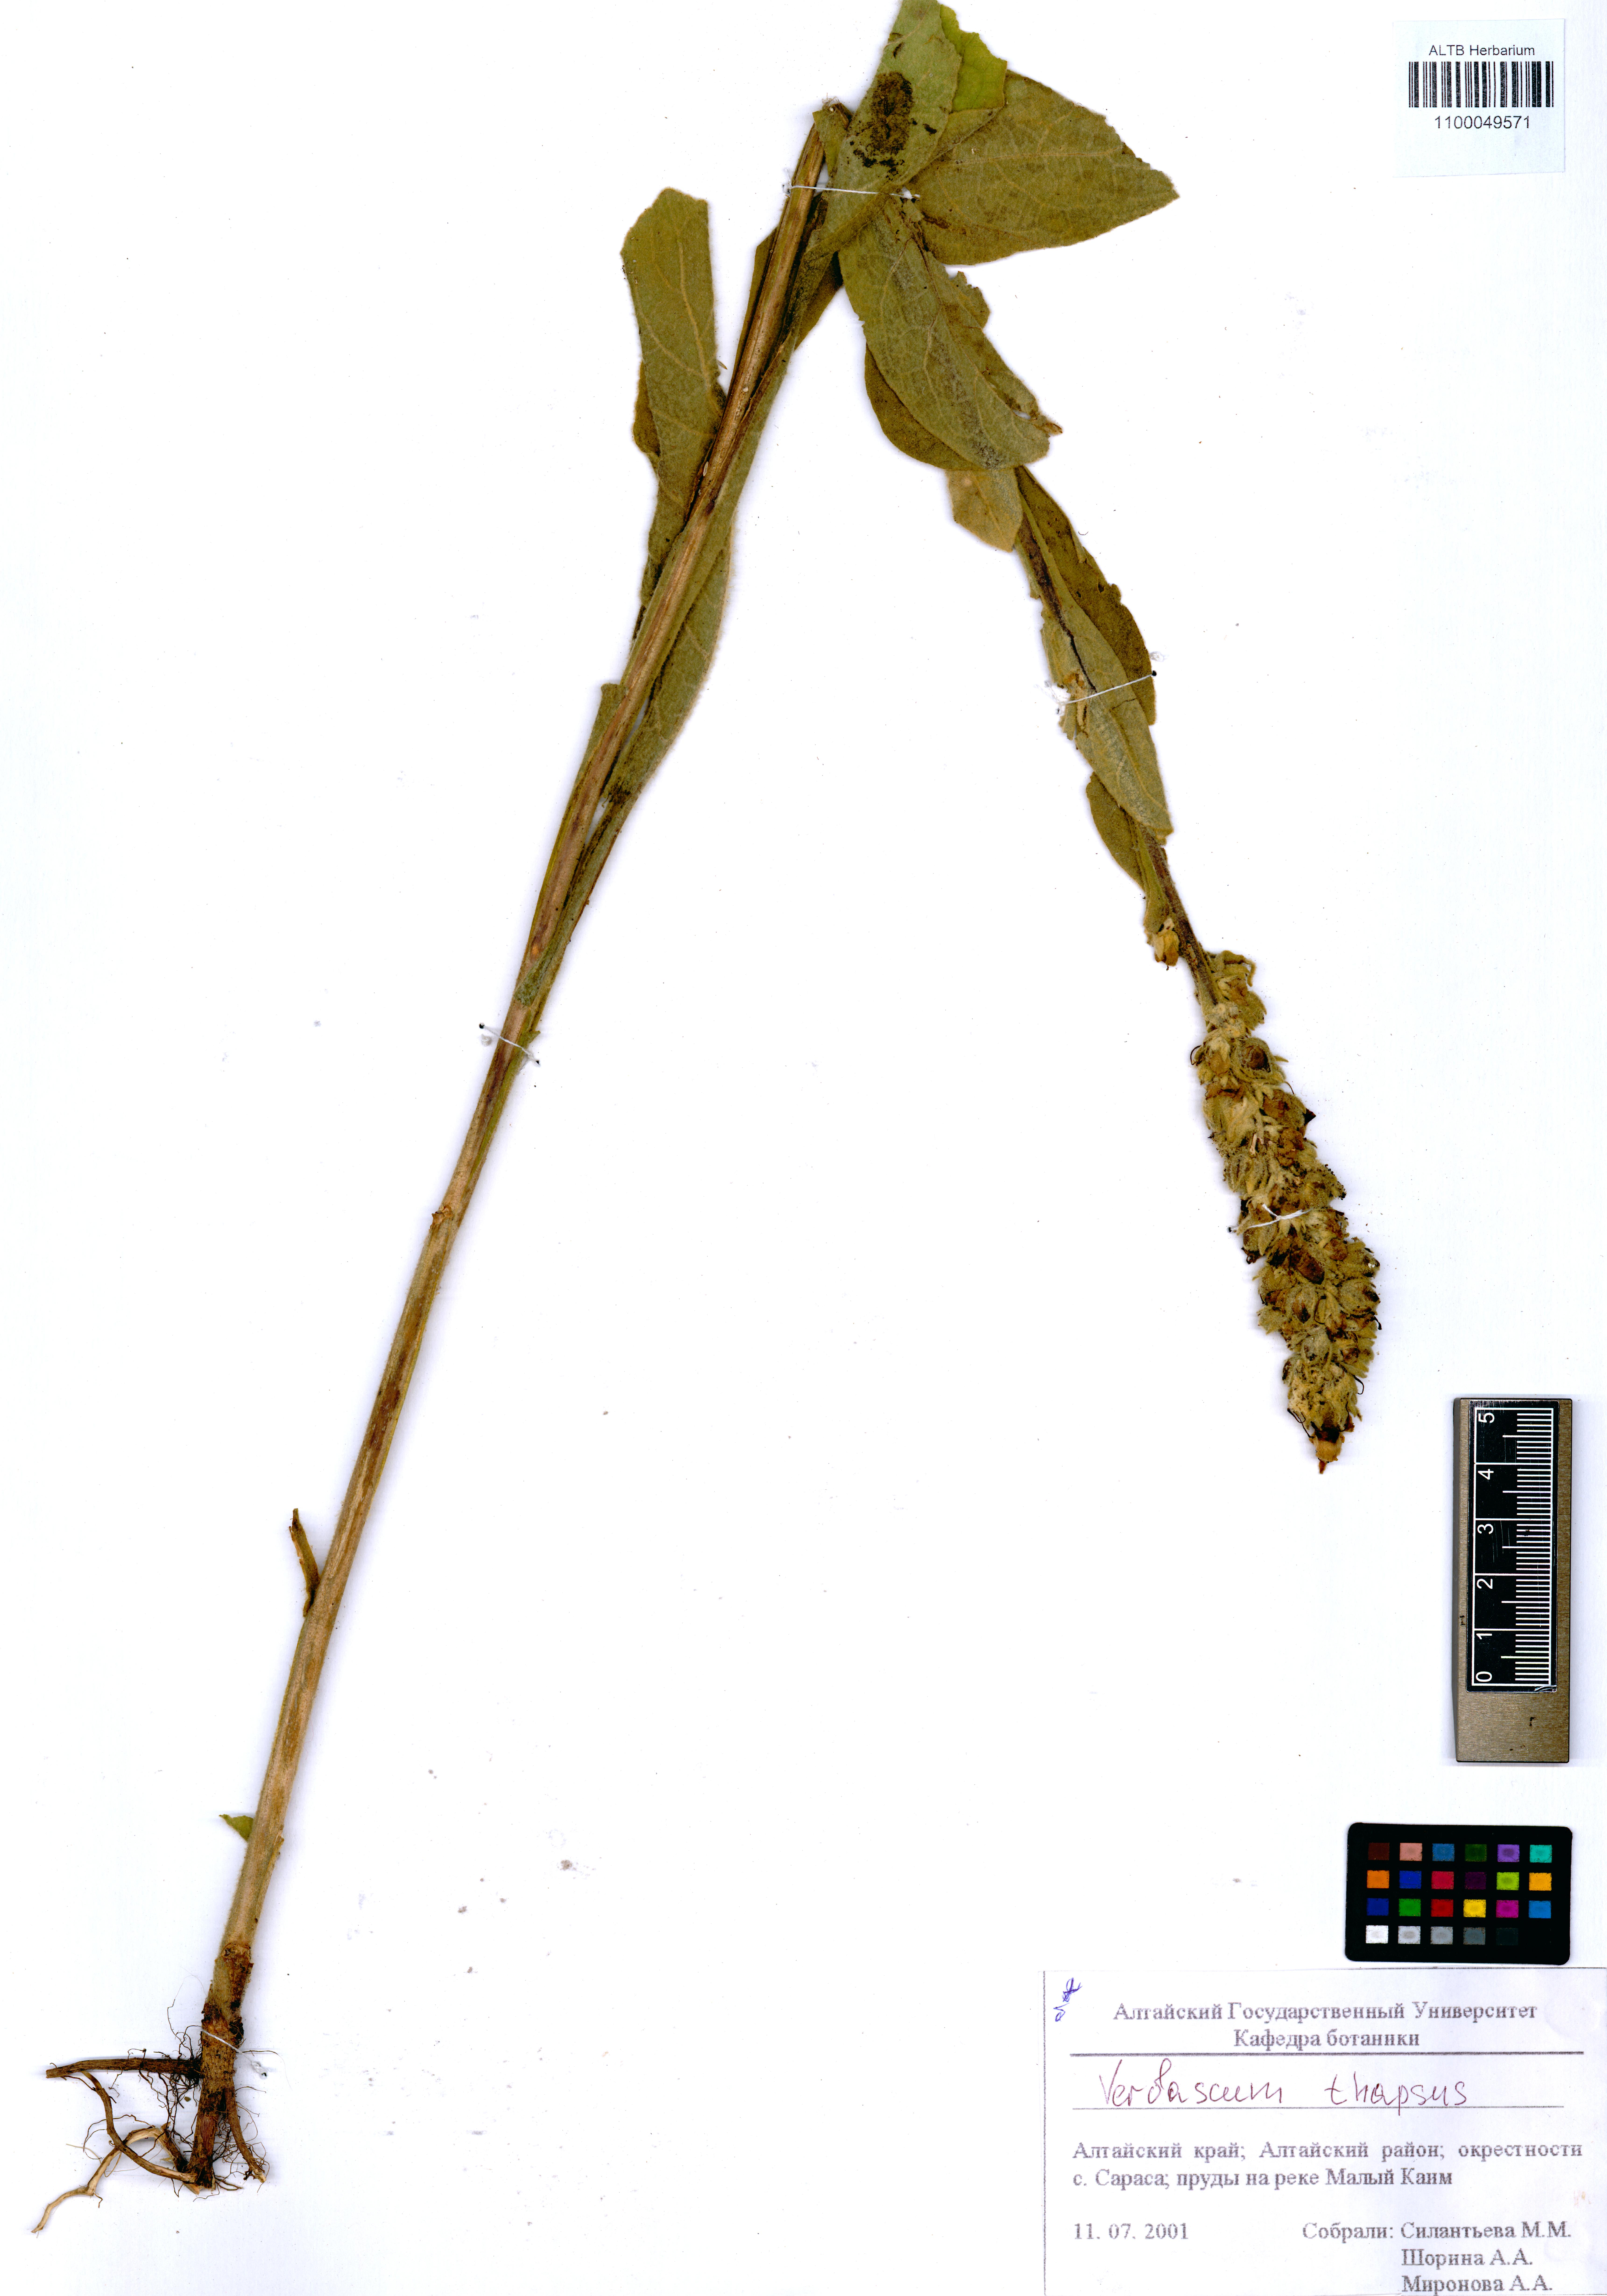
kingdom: Plantae
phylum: Tracheophyta
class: Magnoliopsida
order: Lamiales
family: Scrophulariaceae
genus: Verbascum
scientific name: Verbascum thapsus
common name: Common mullein
